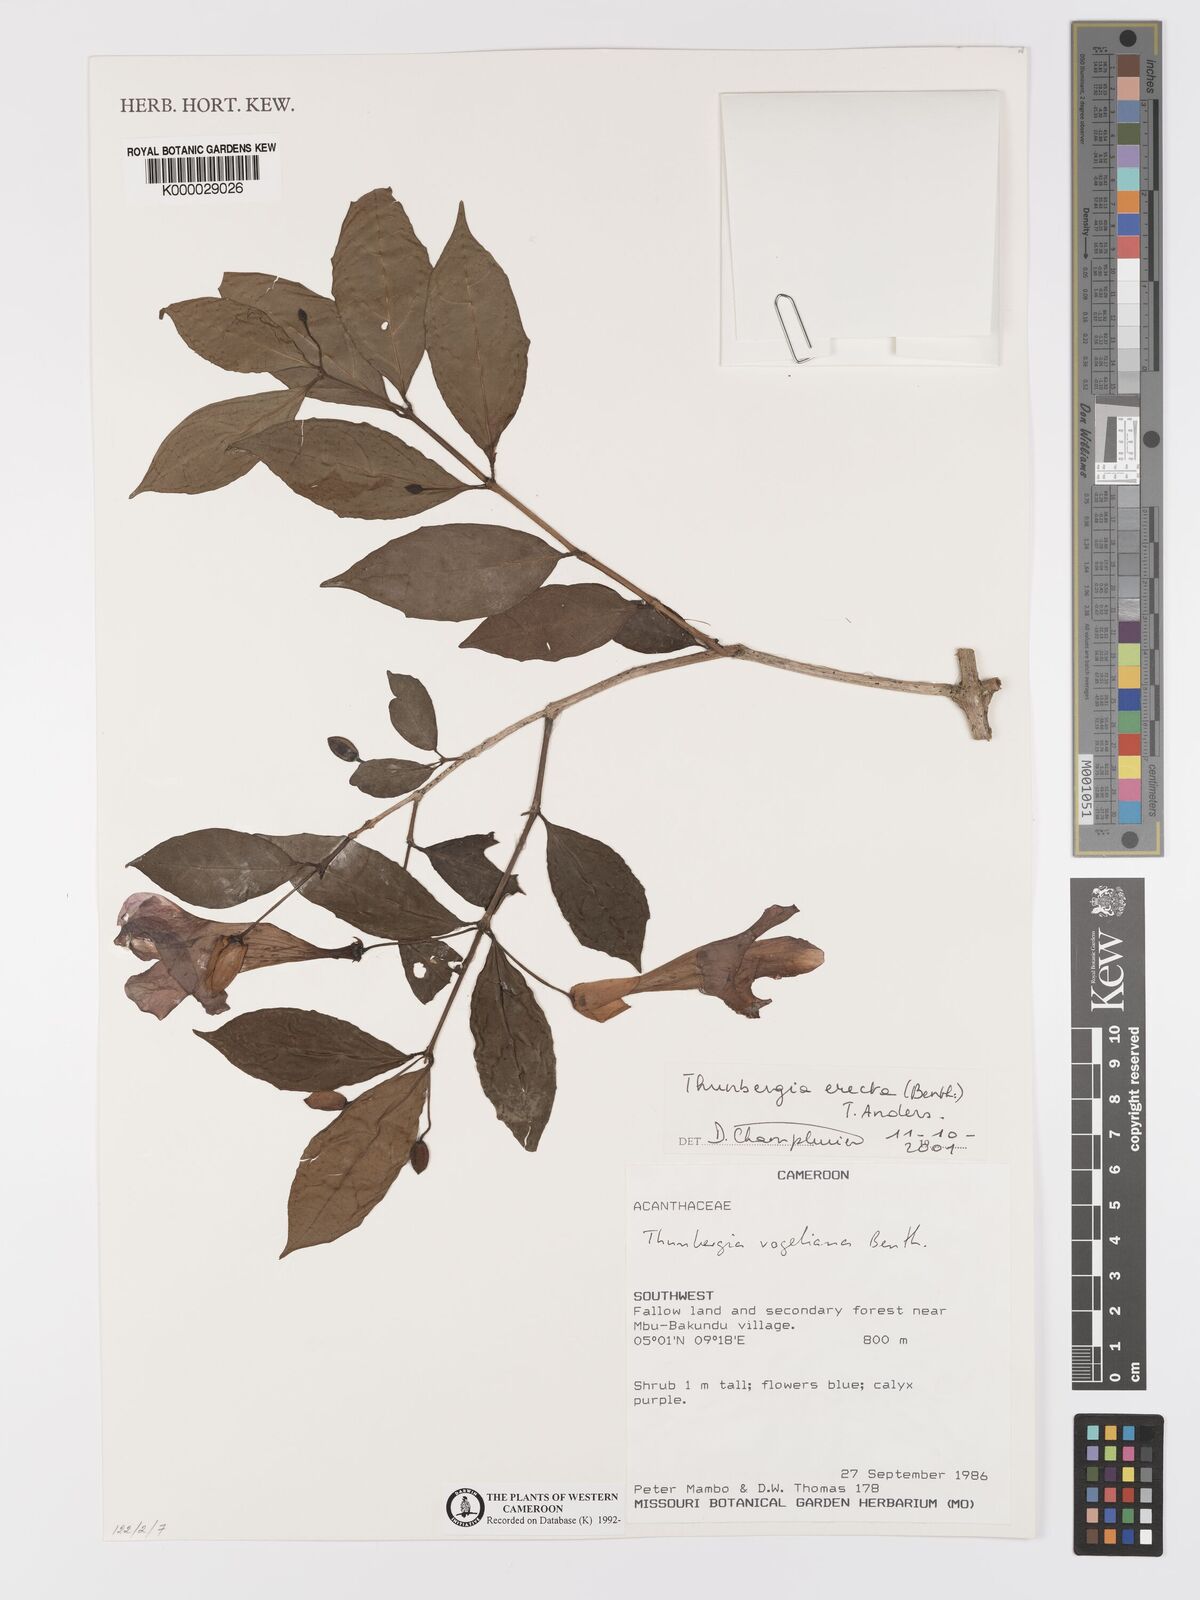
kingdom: Plantae
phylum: Tracheophyta
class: Magnoliopsida
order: Lamiales
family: Acanthaceae
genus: Thunbergia
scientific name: Thunbergia erecta
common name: Bush clockvine
